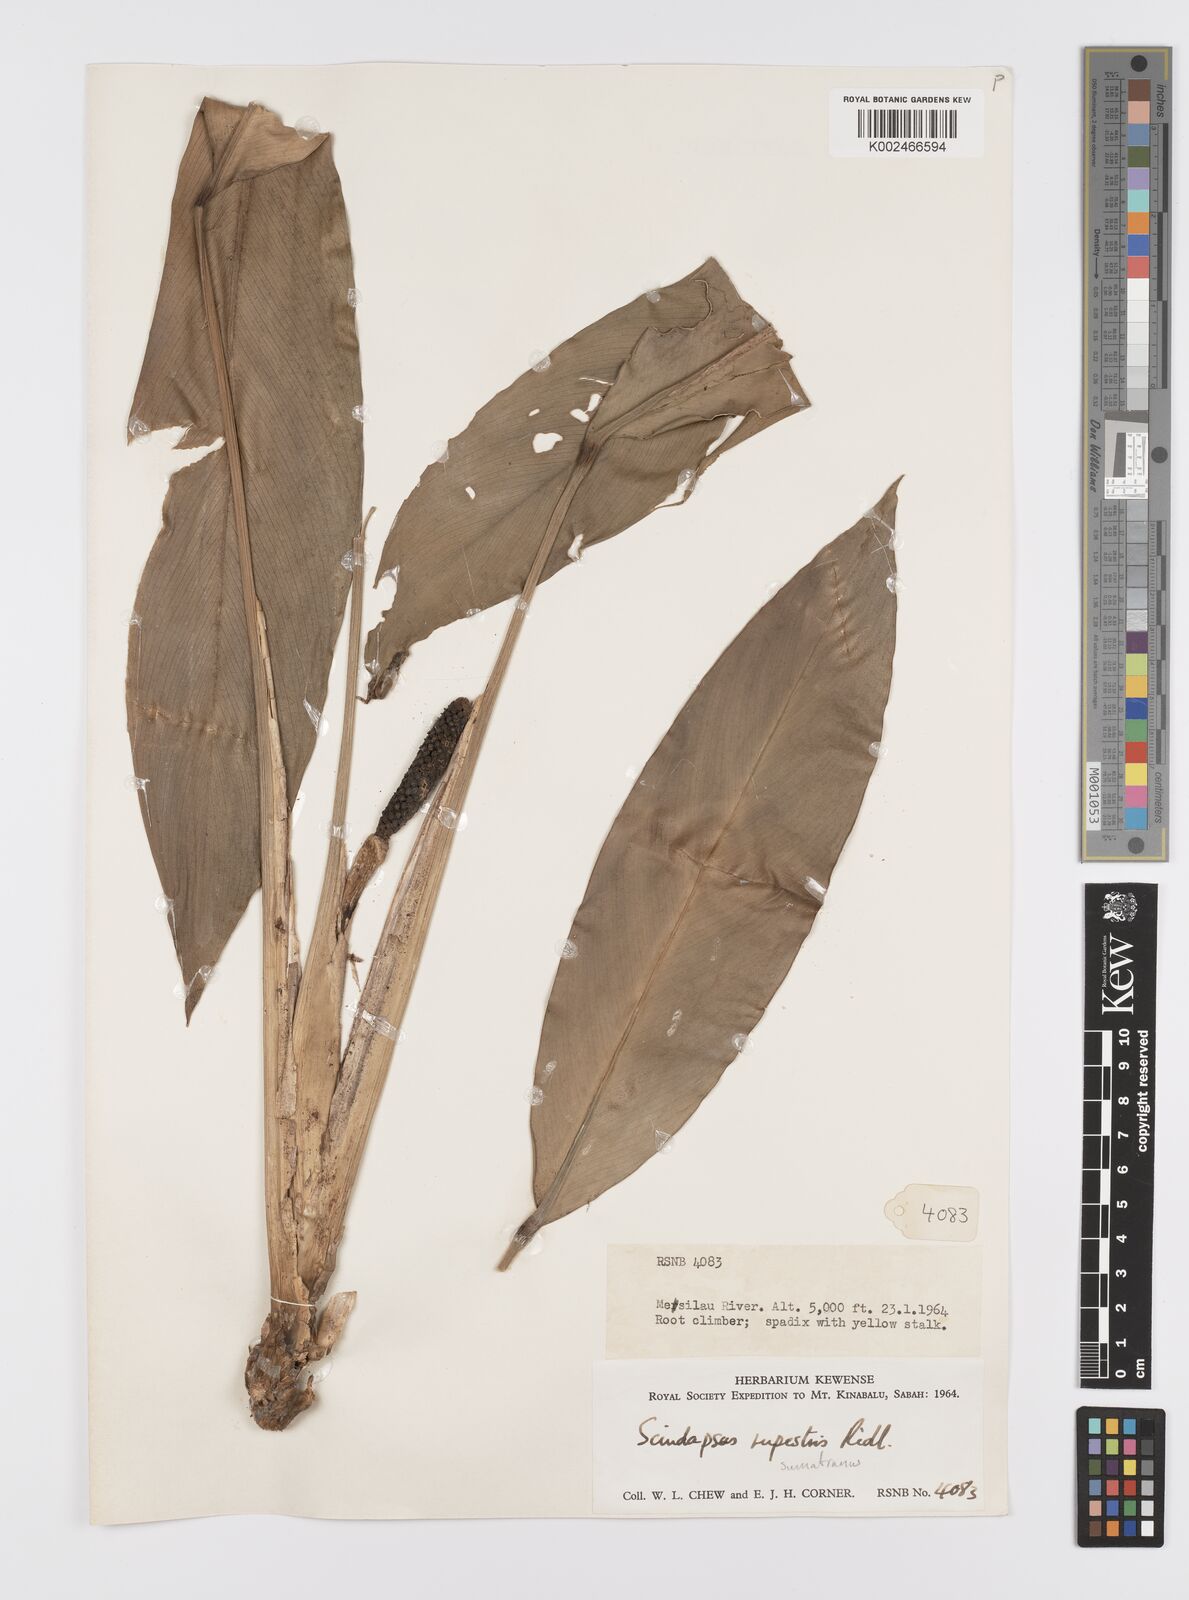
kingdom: Plantae
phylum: Tracheophyta
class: Liliopsida
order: Alismatales
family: Araceae
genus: Scindapsus
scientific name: Scindapsus sumatranus
